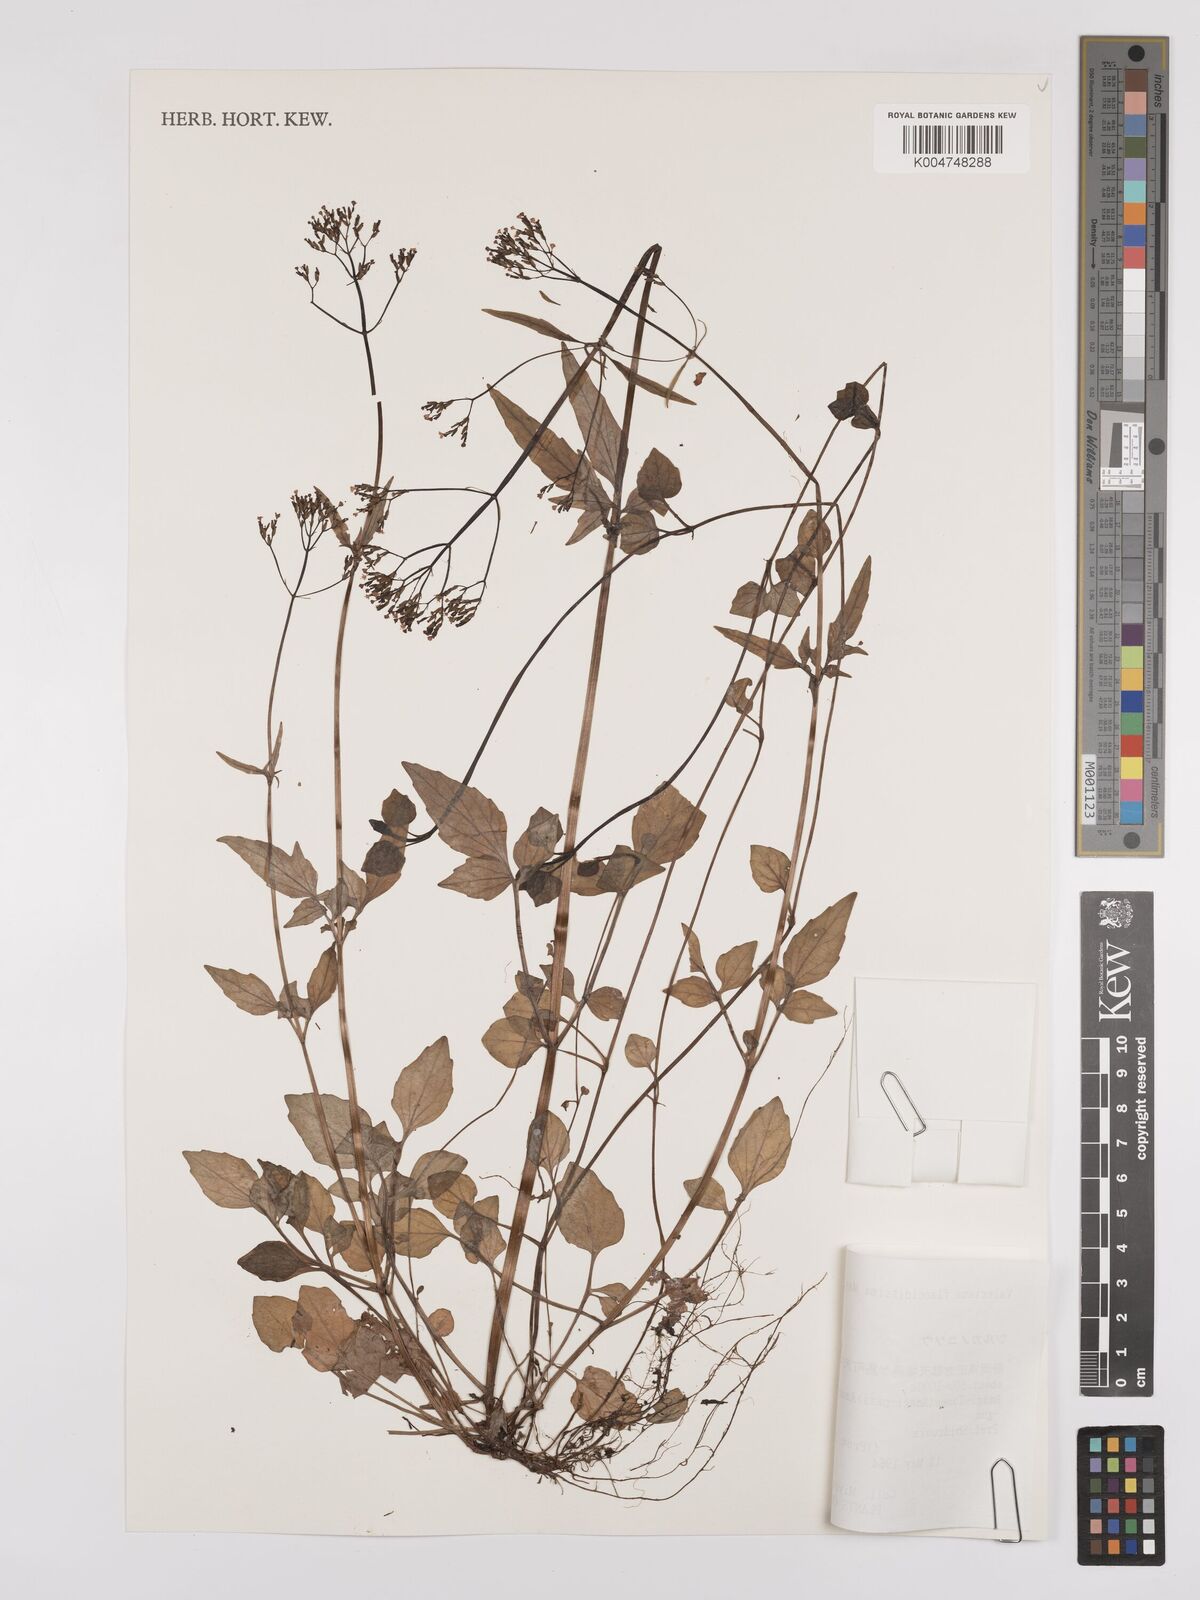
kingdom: Plantae
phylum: Tracheophyta
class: Magnoliopsida
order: Dipsacales
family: Caprifoliaceae
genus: Valeriana
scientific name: Valeriana flaccidissima
